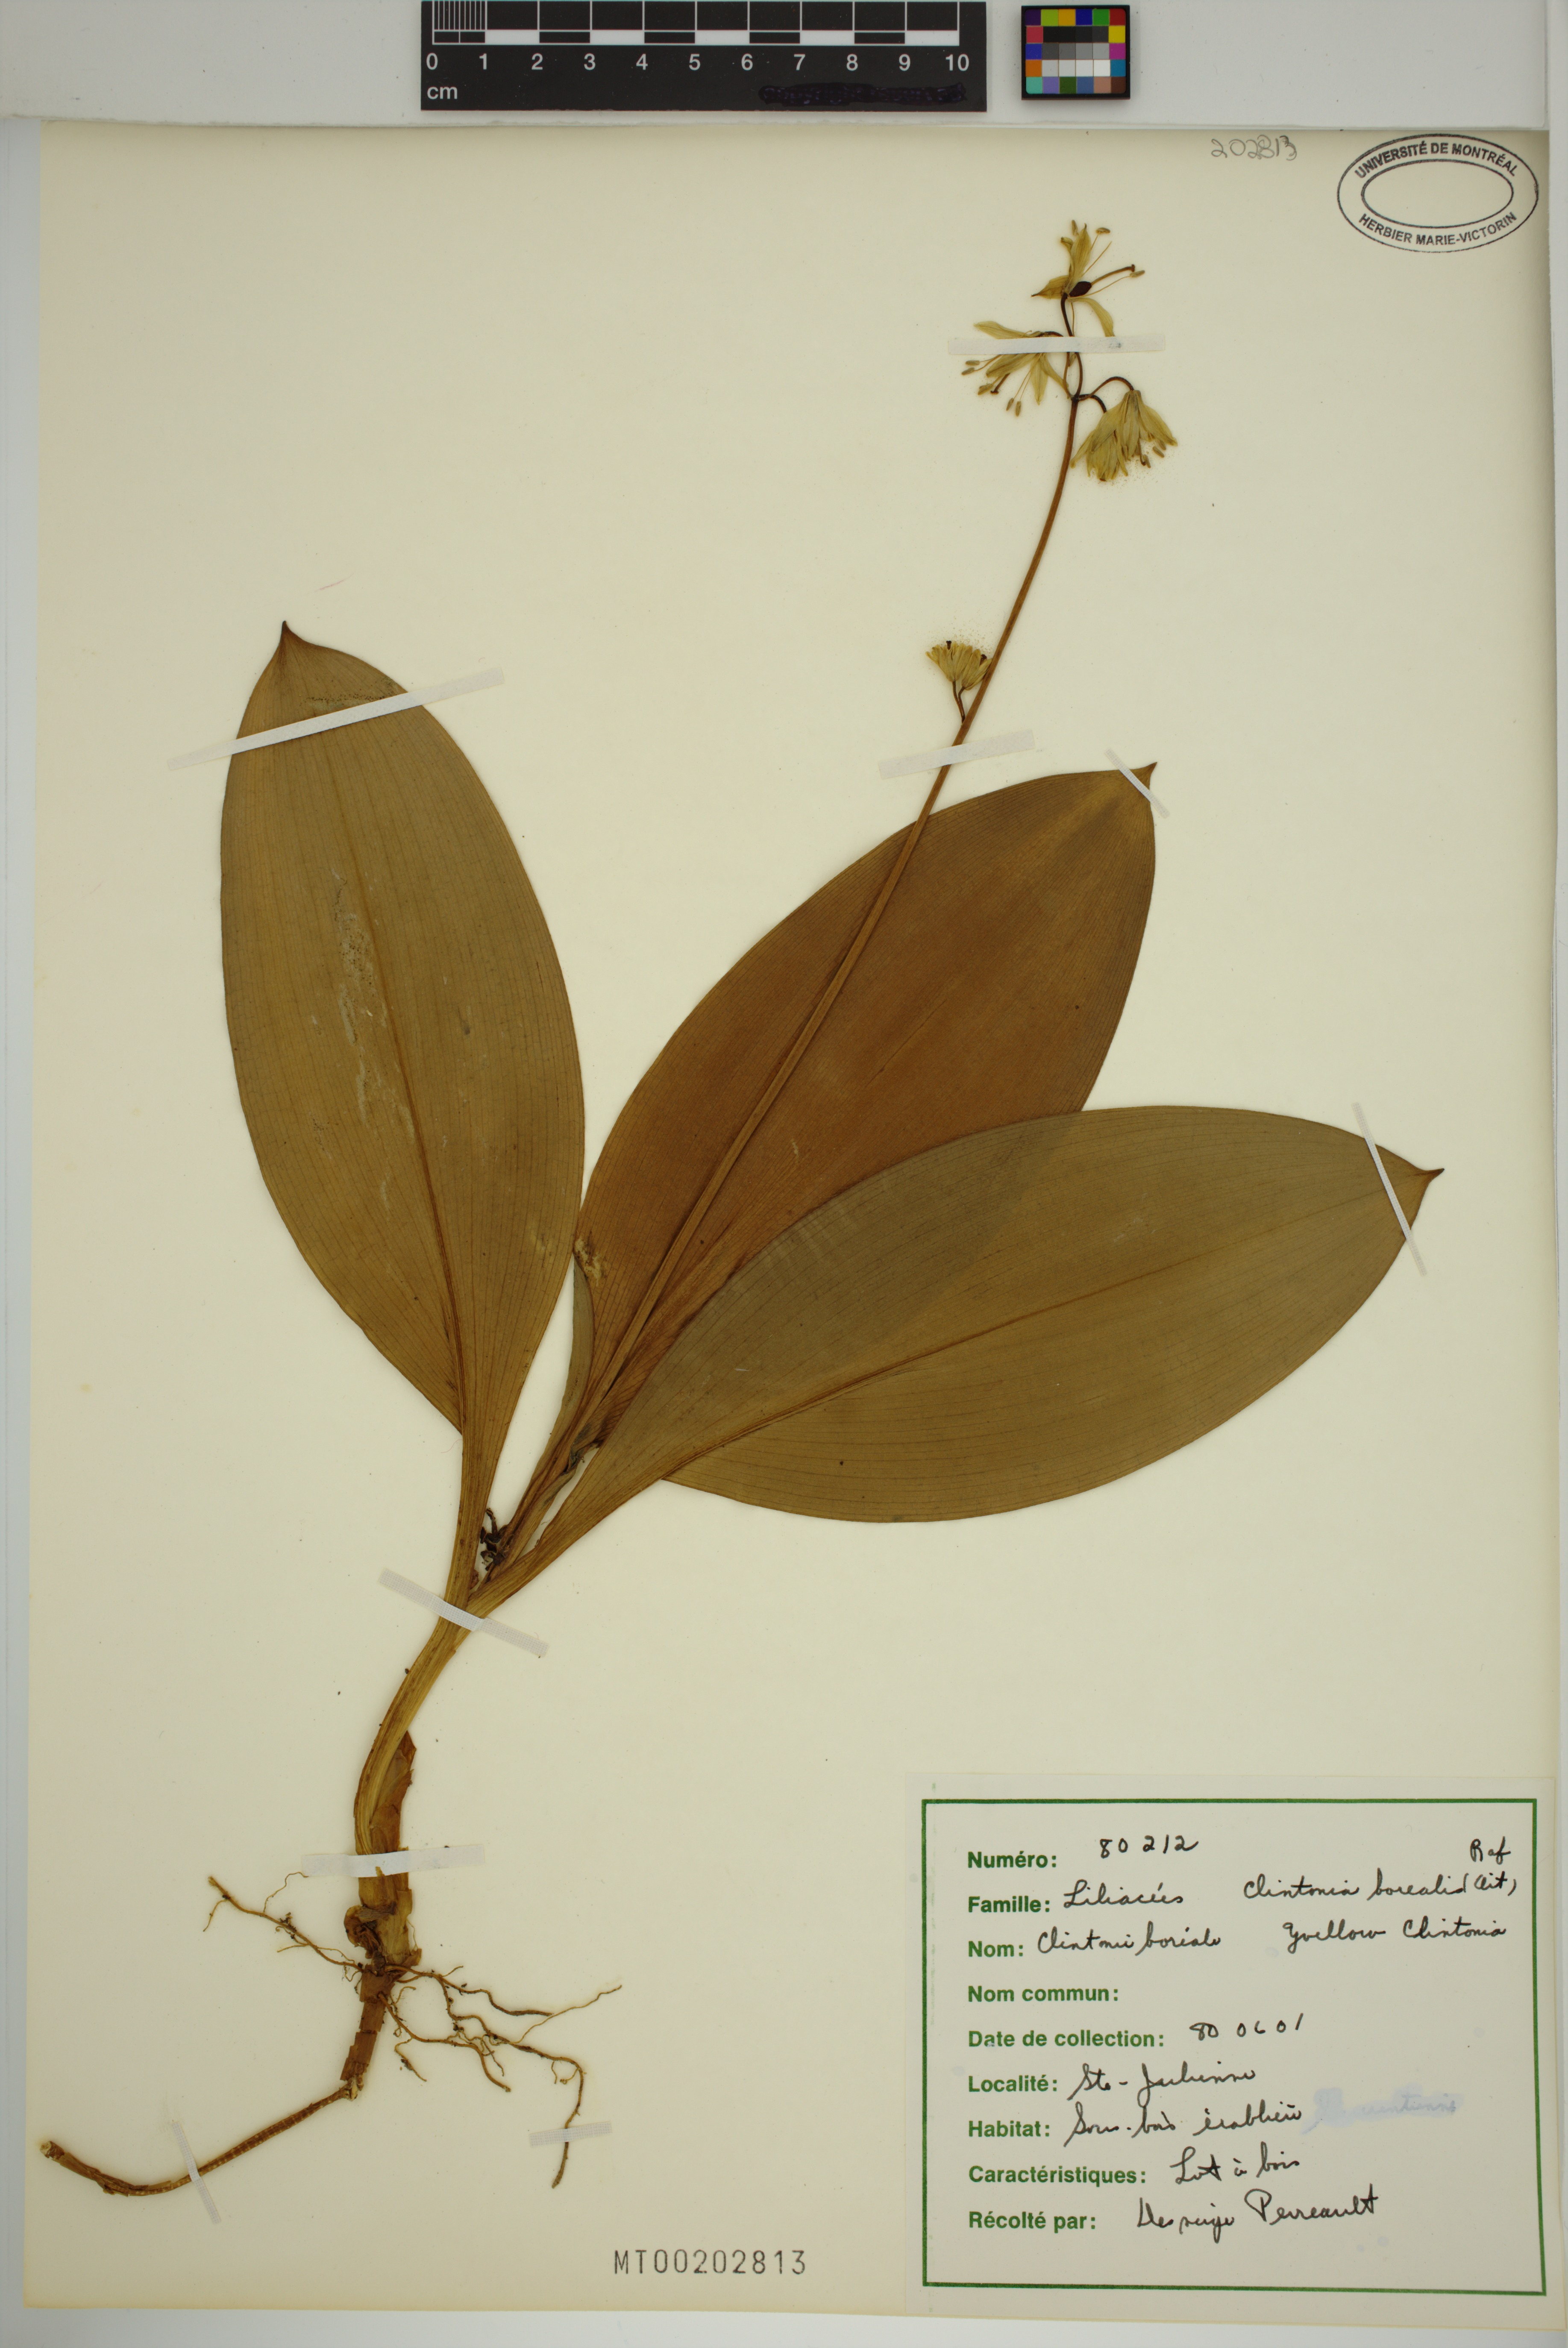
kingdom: Plantae
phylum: Tracheophyta
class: Liliopsida
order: Liliales
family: Liliaceae
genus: Clintonia
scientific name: Clintonia borealis
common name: Yellow clintonia
